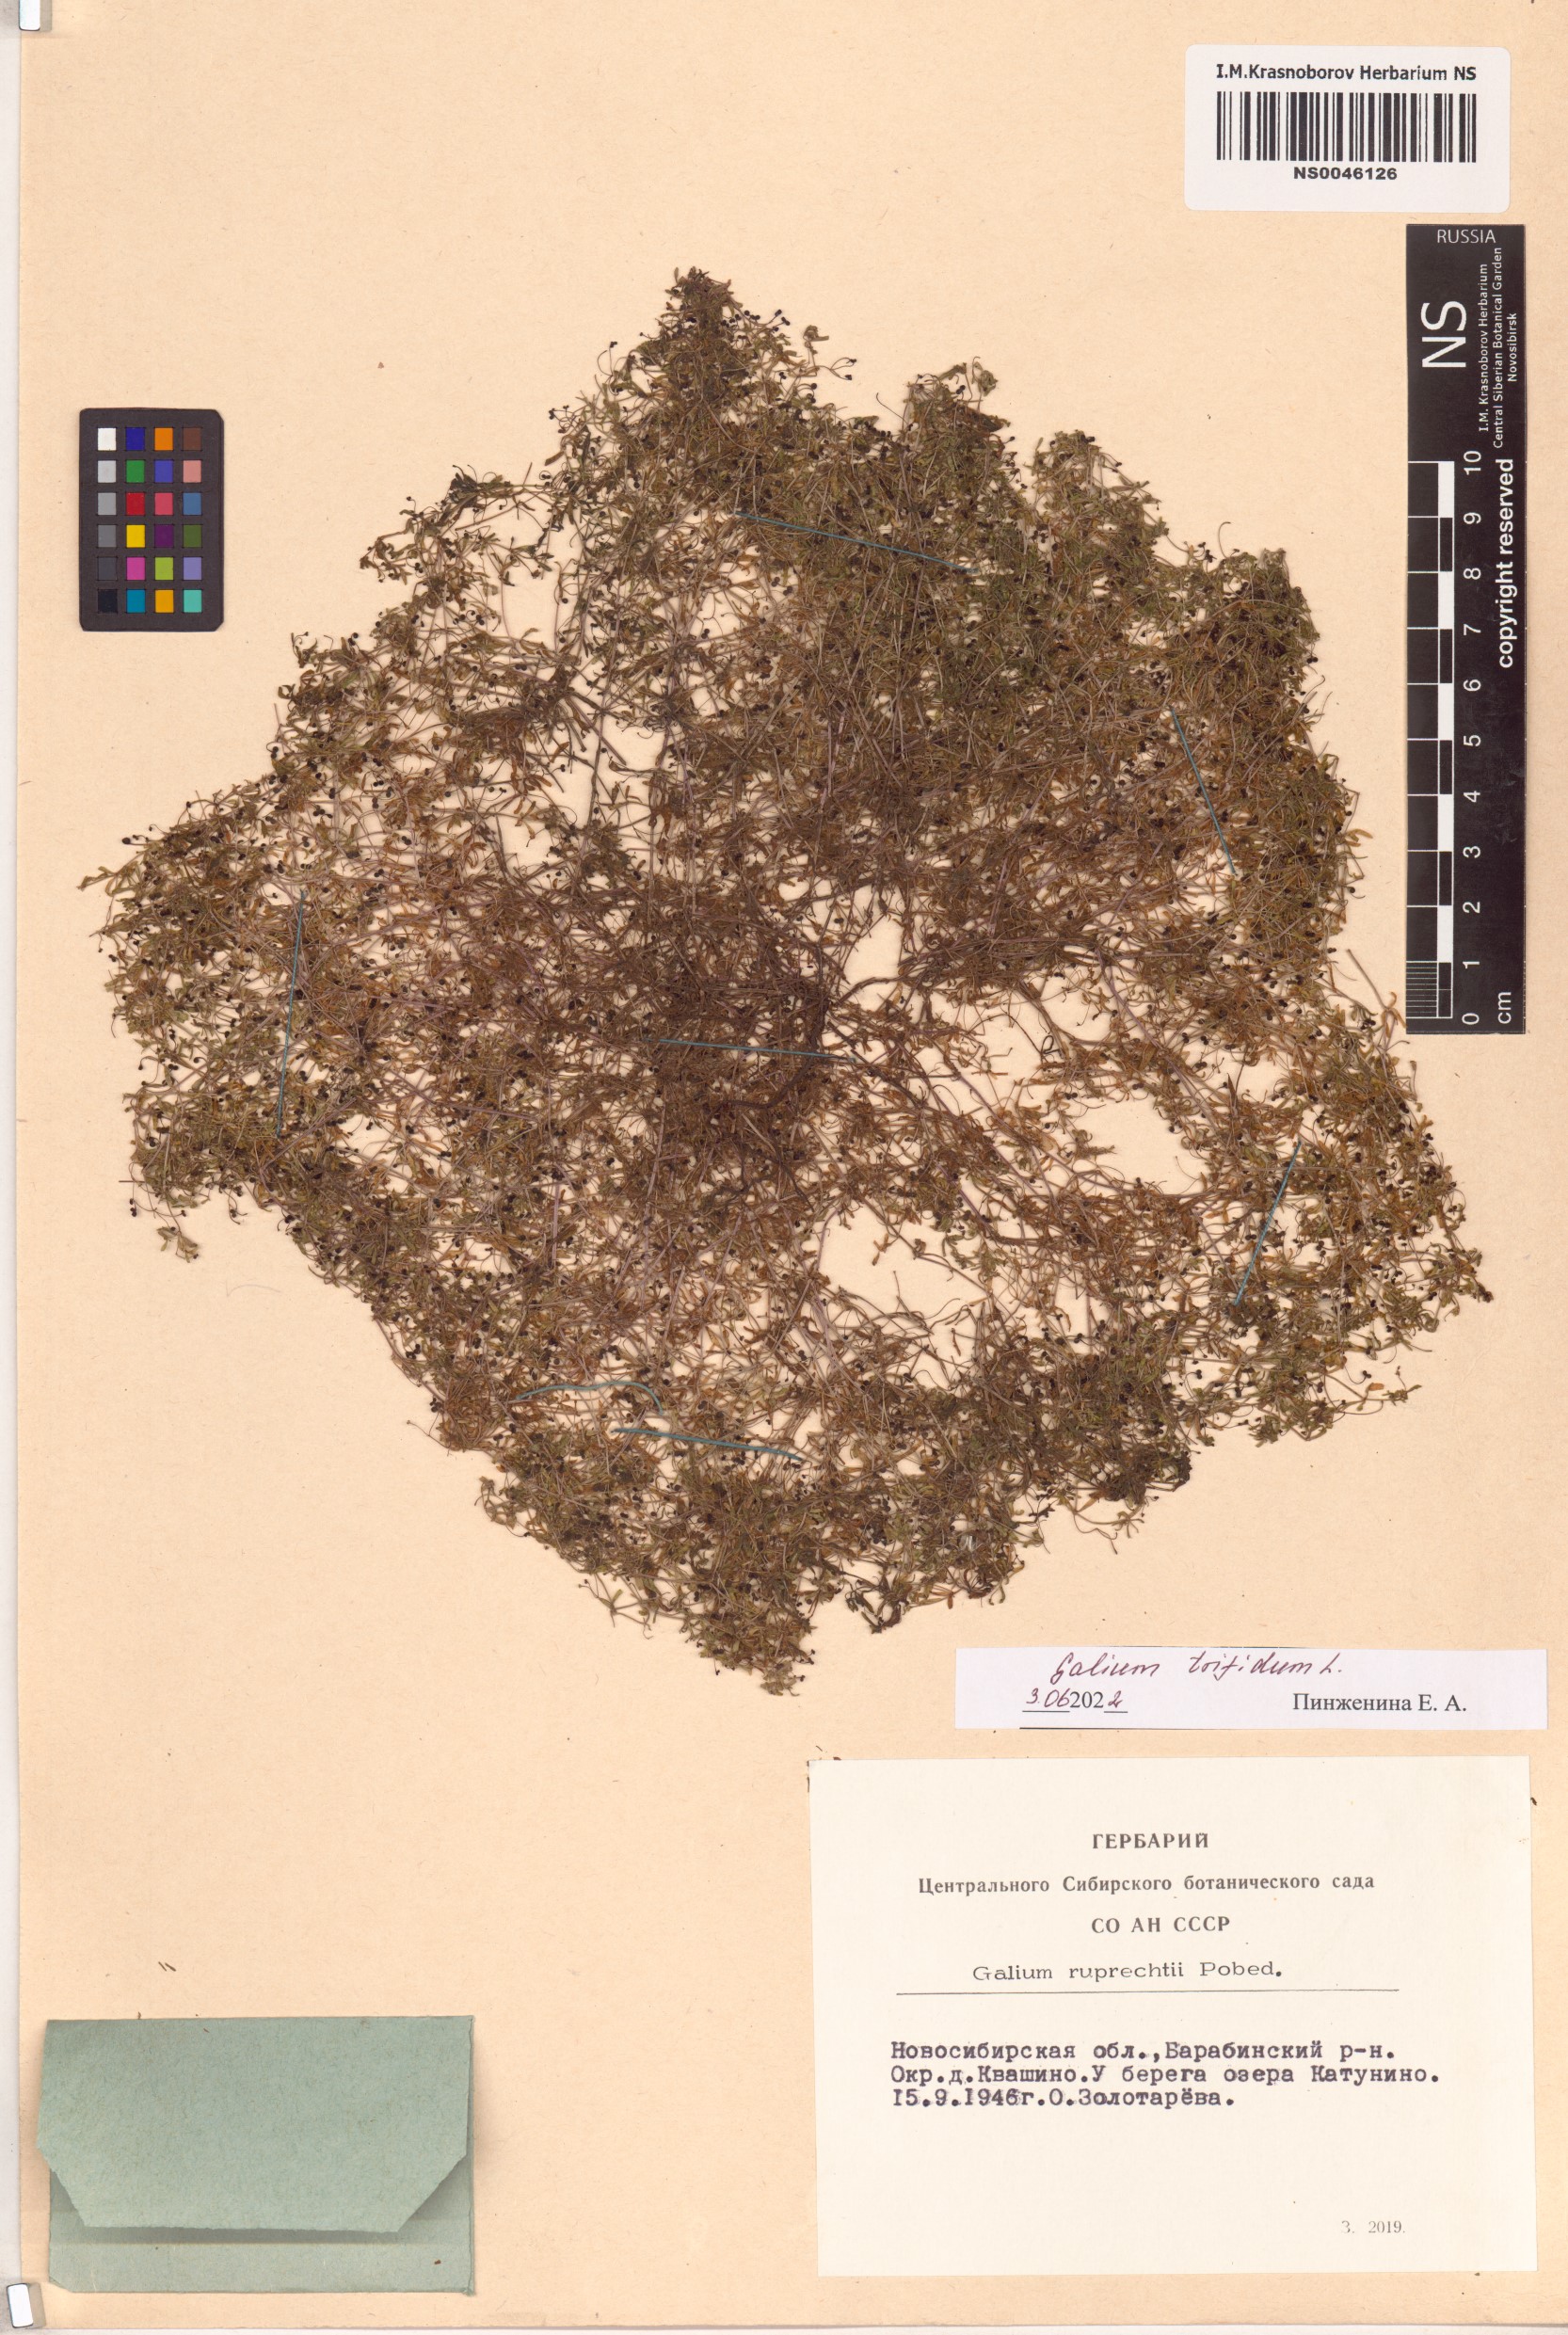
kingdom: Plantae
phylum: Tracheophyta
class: Magnoliopsida
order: Gentianales
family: Rubiaceae
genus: Galium
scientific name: Galium trifidum
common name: Small bedstraw
